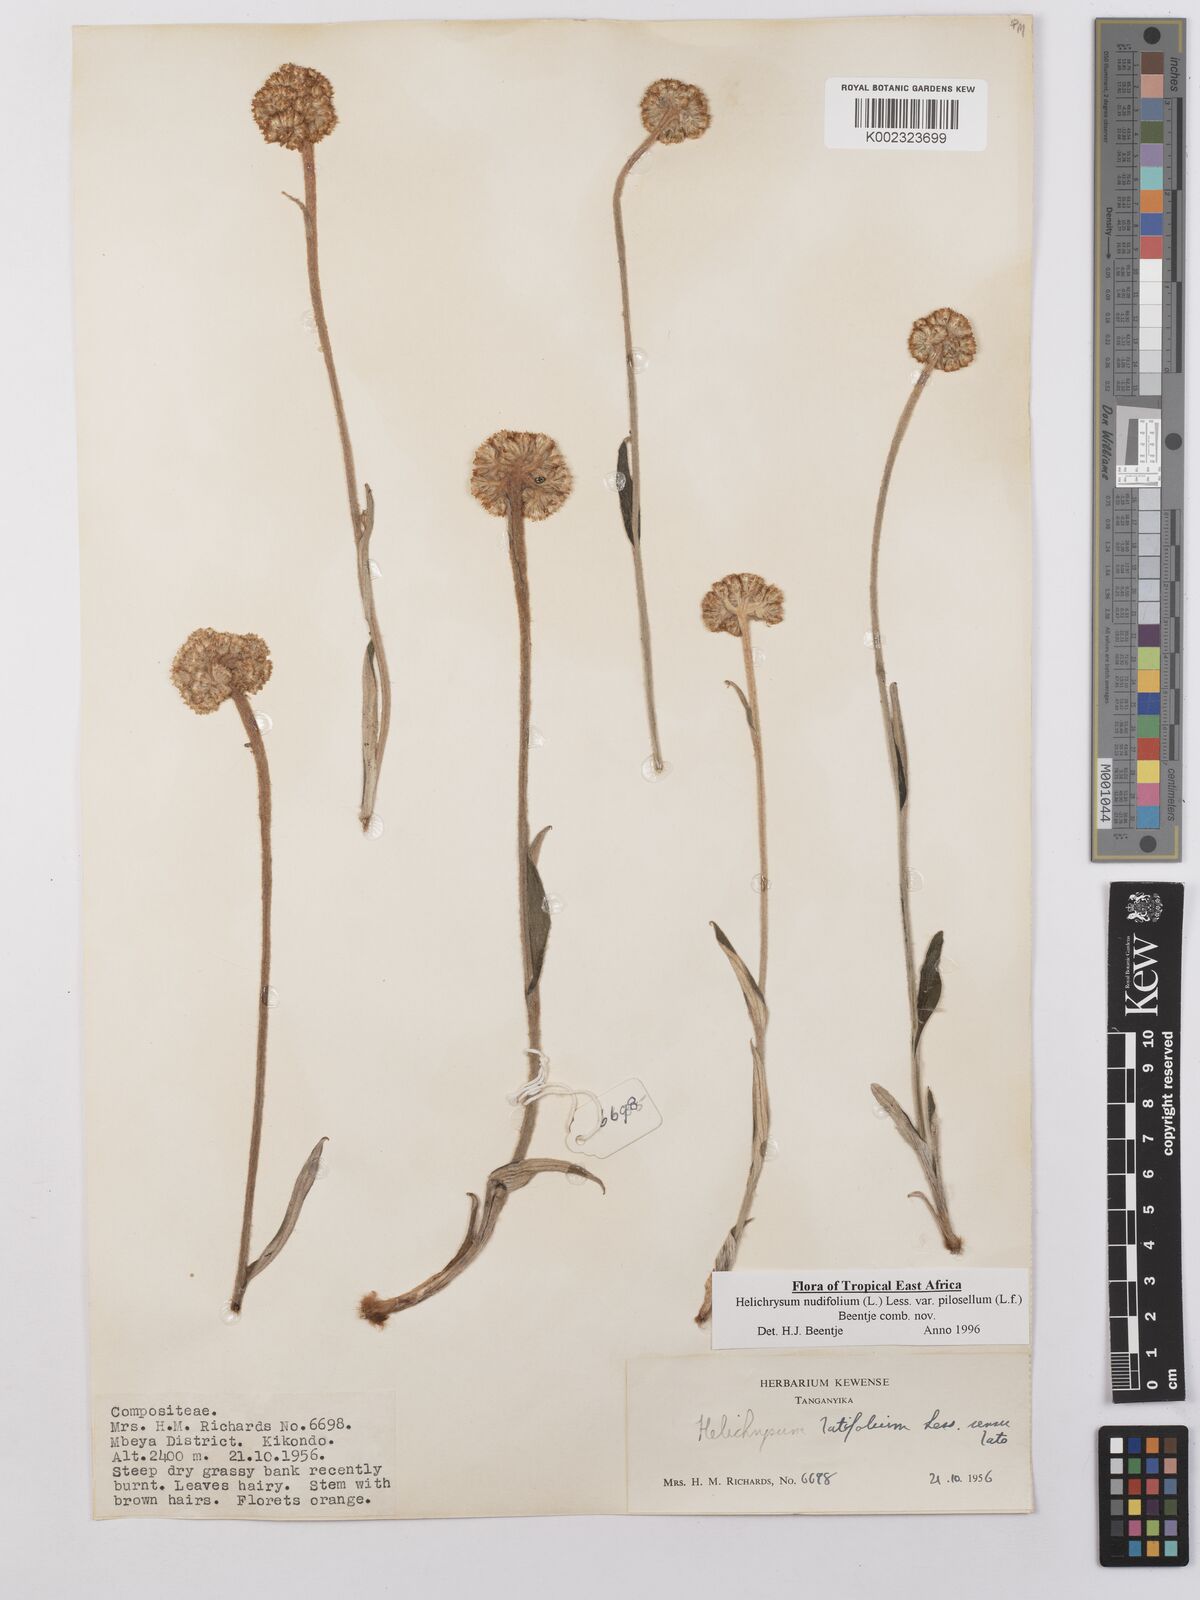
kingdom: Plantae
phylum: Tracheophyta
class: Magnoliopsida
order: Asterales
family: Asteraceae
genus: Helichrysum
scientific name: Helichrysum nudifolium
